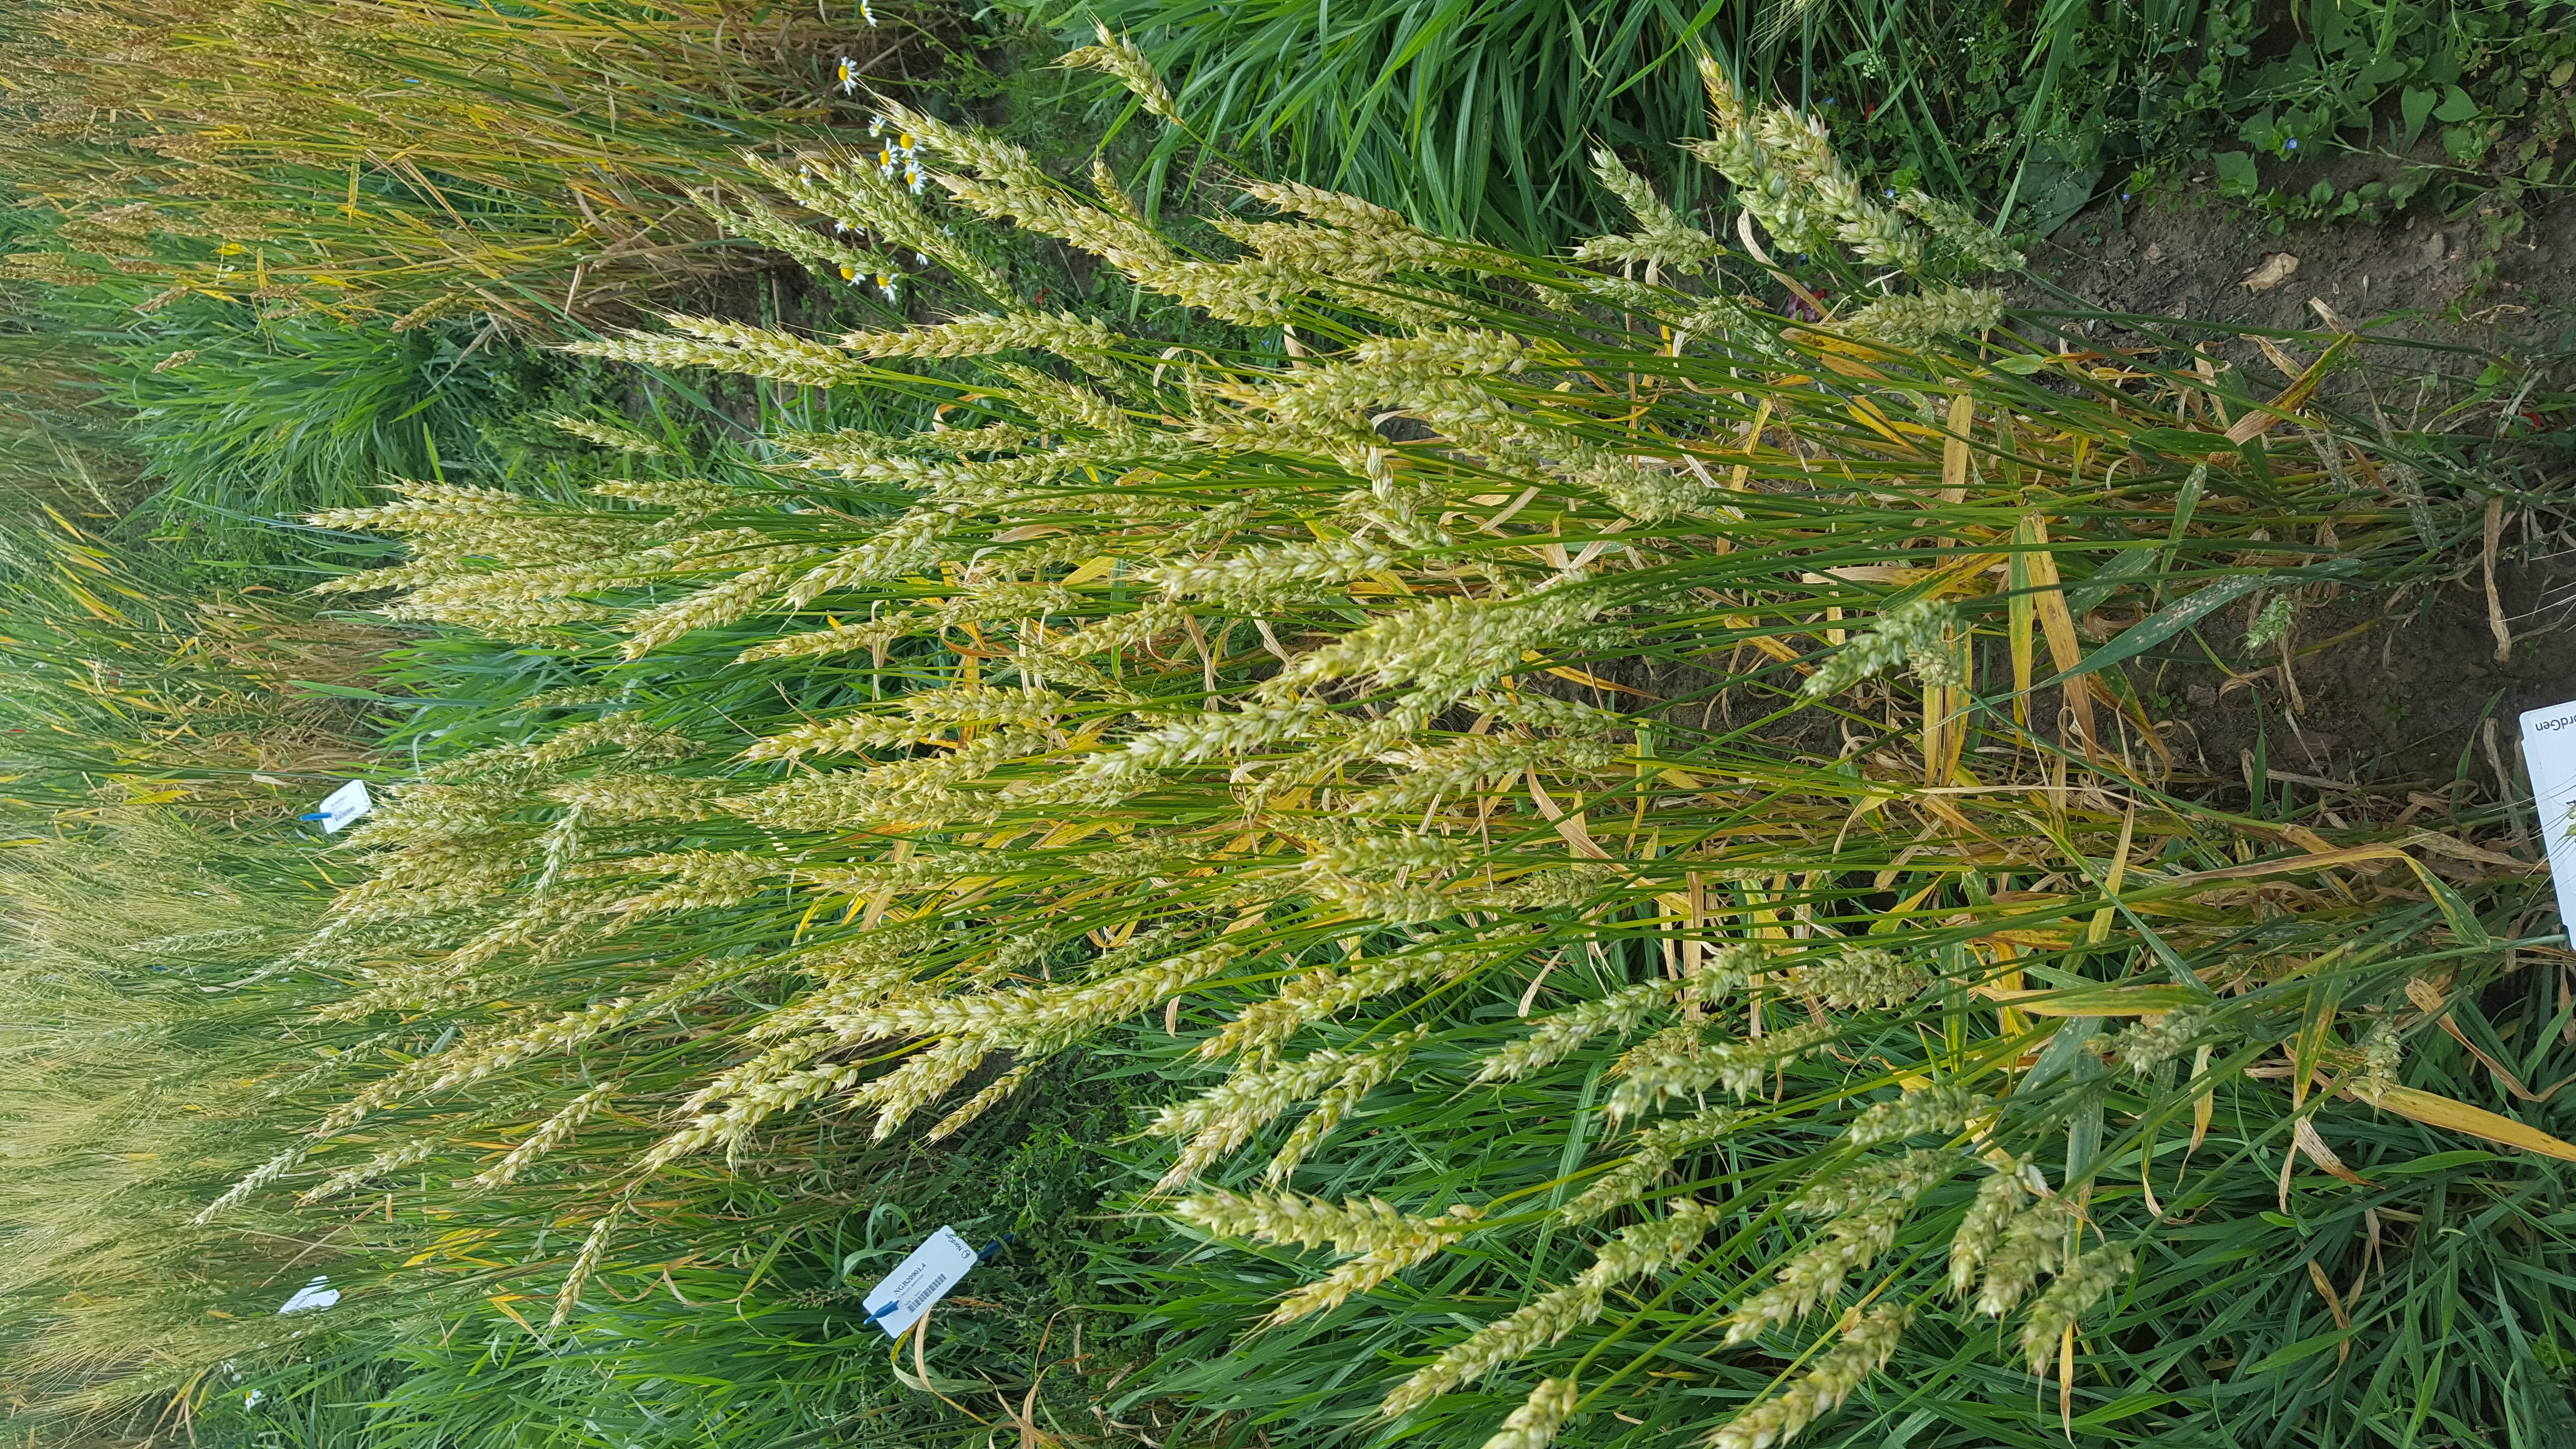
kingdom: Plantae
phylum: Tracheophyta
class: Liliopsida
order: Poales
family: Poaceae
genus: Triticum
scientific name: Triticum aestivum
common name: Common wheat
